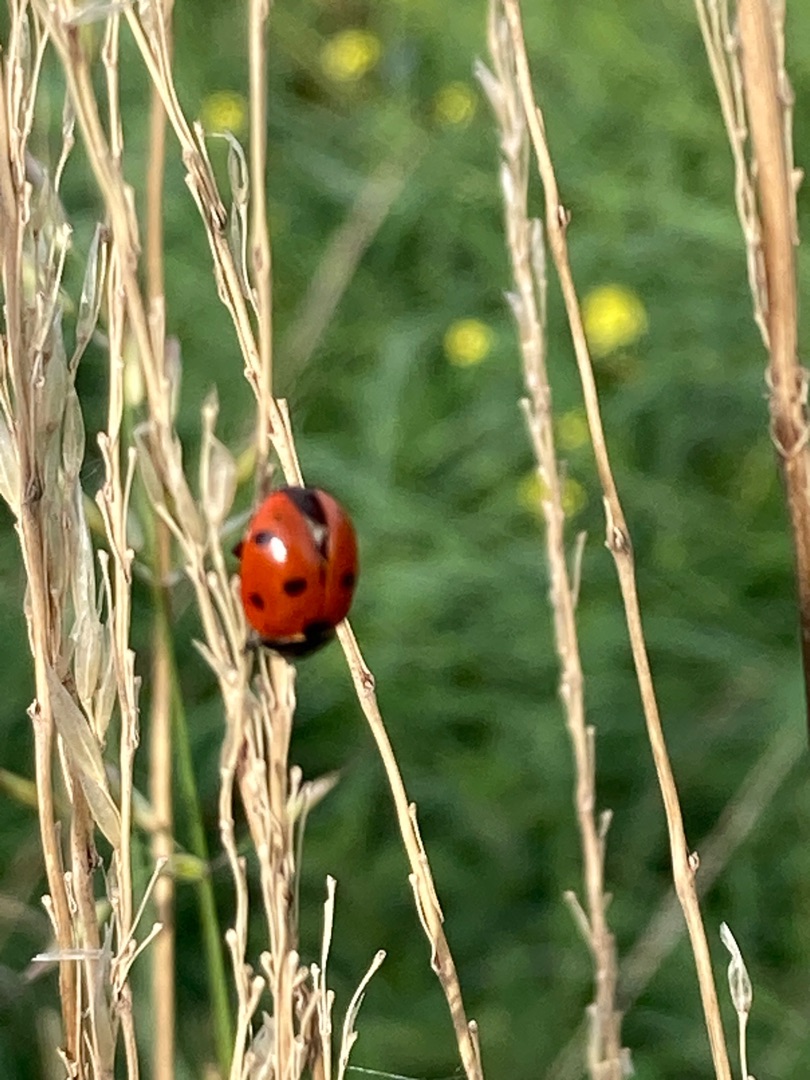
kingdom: Animalia
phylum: Arthropoda
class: Insecta
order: Coleoptera
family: Coccinellidae
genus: Coccinella
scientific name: Coccinella septempunctata
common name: Syvplettet mariehøne
